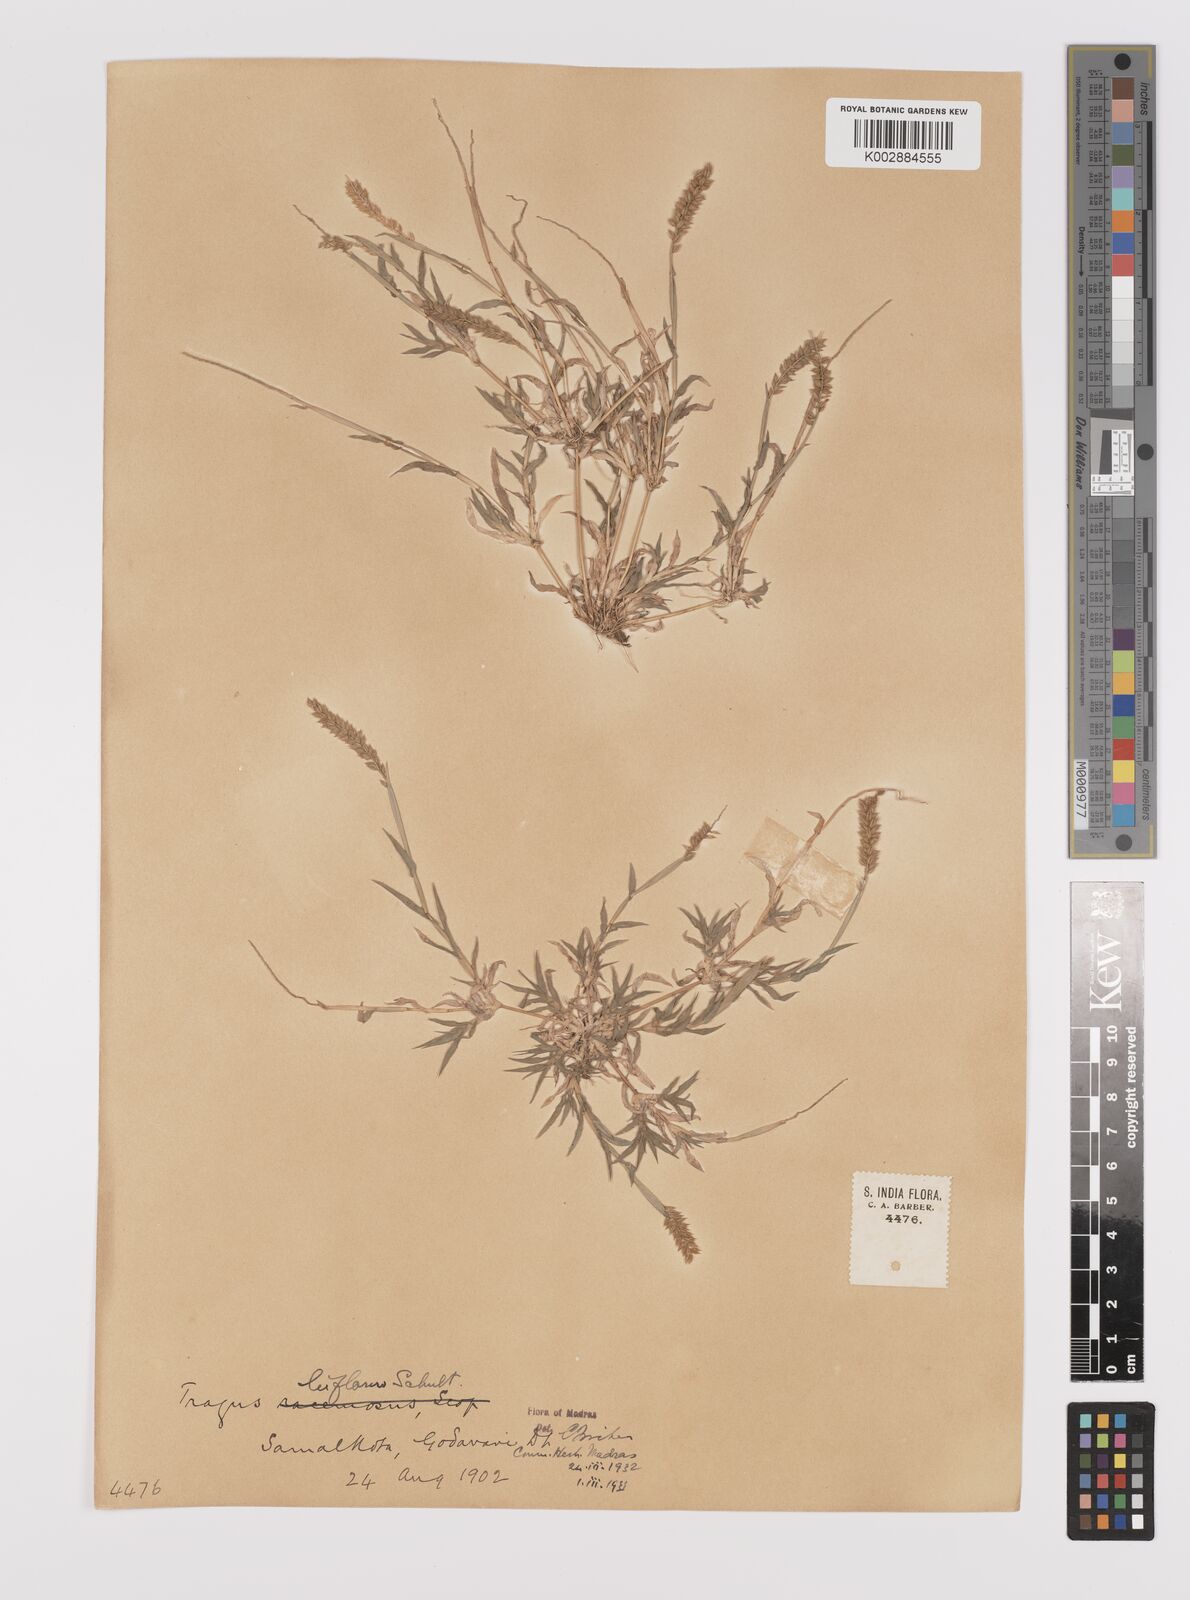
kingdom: Plantae
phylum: Tracheophyta
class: Liliopsida
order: Poales
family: Poaceae
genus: Tragus
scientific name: Tragus mongolorum
